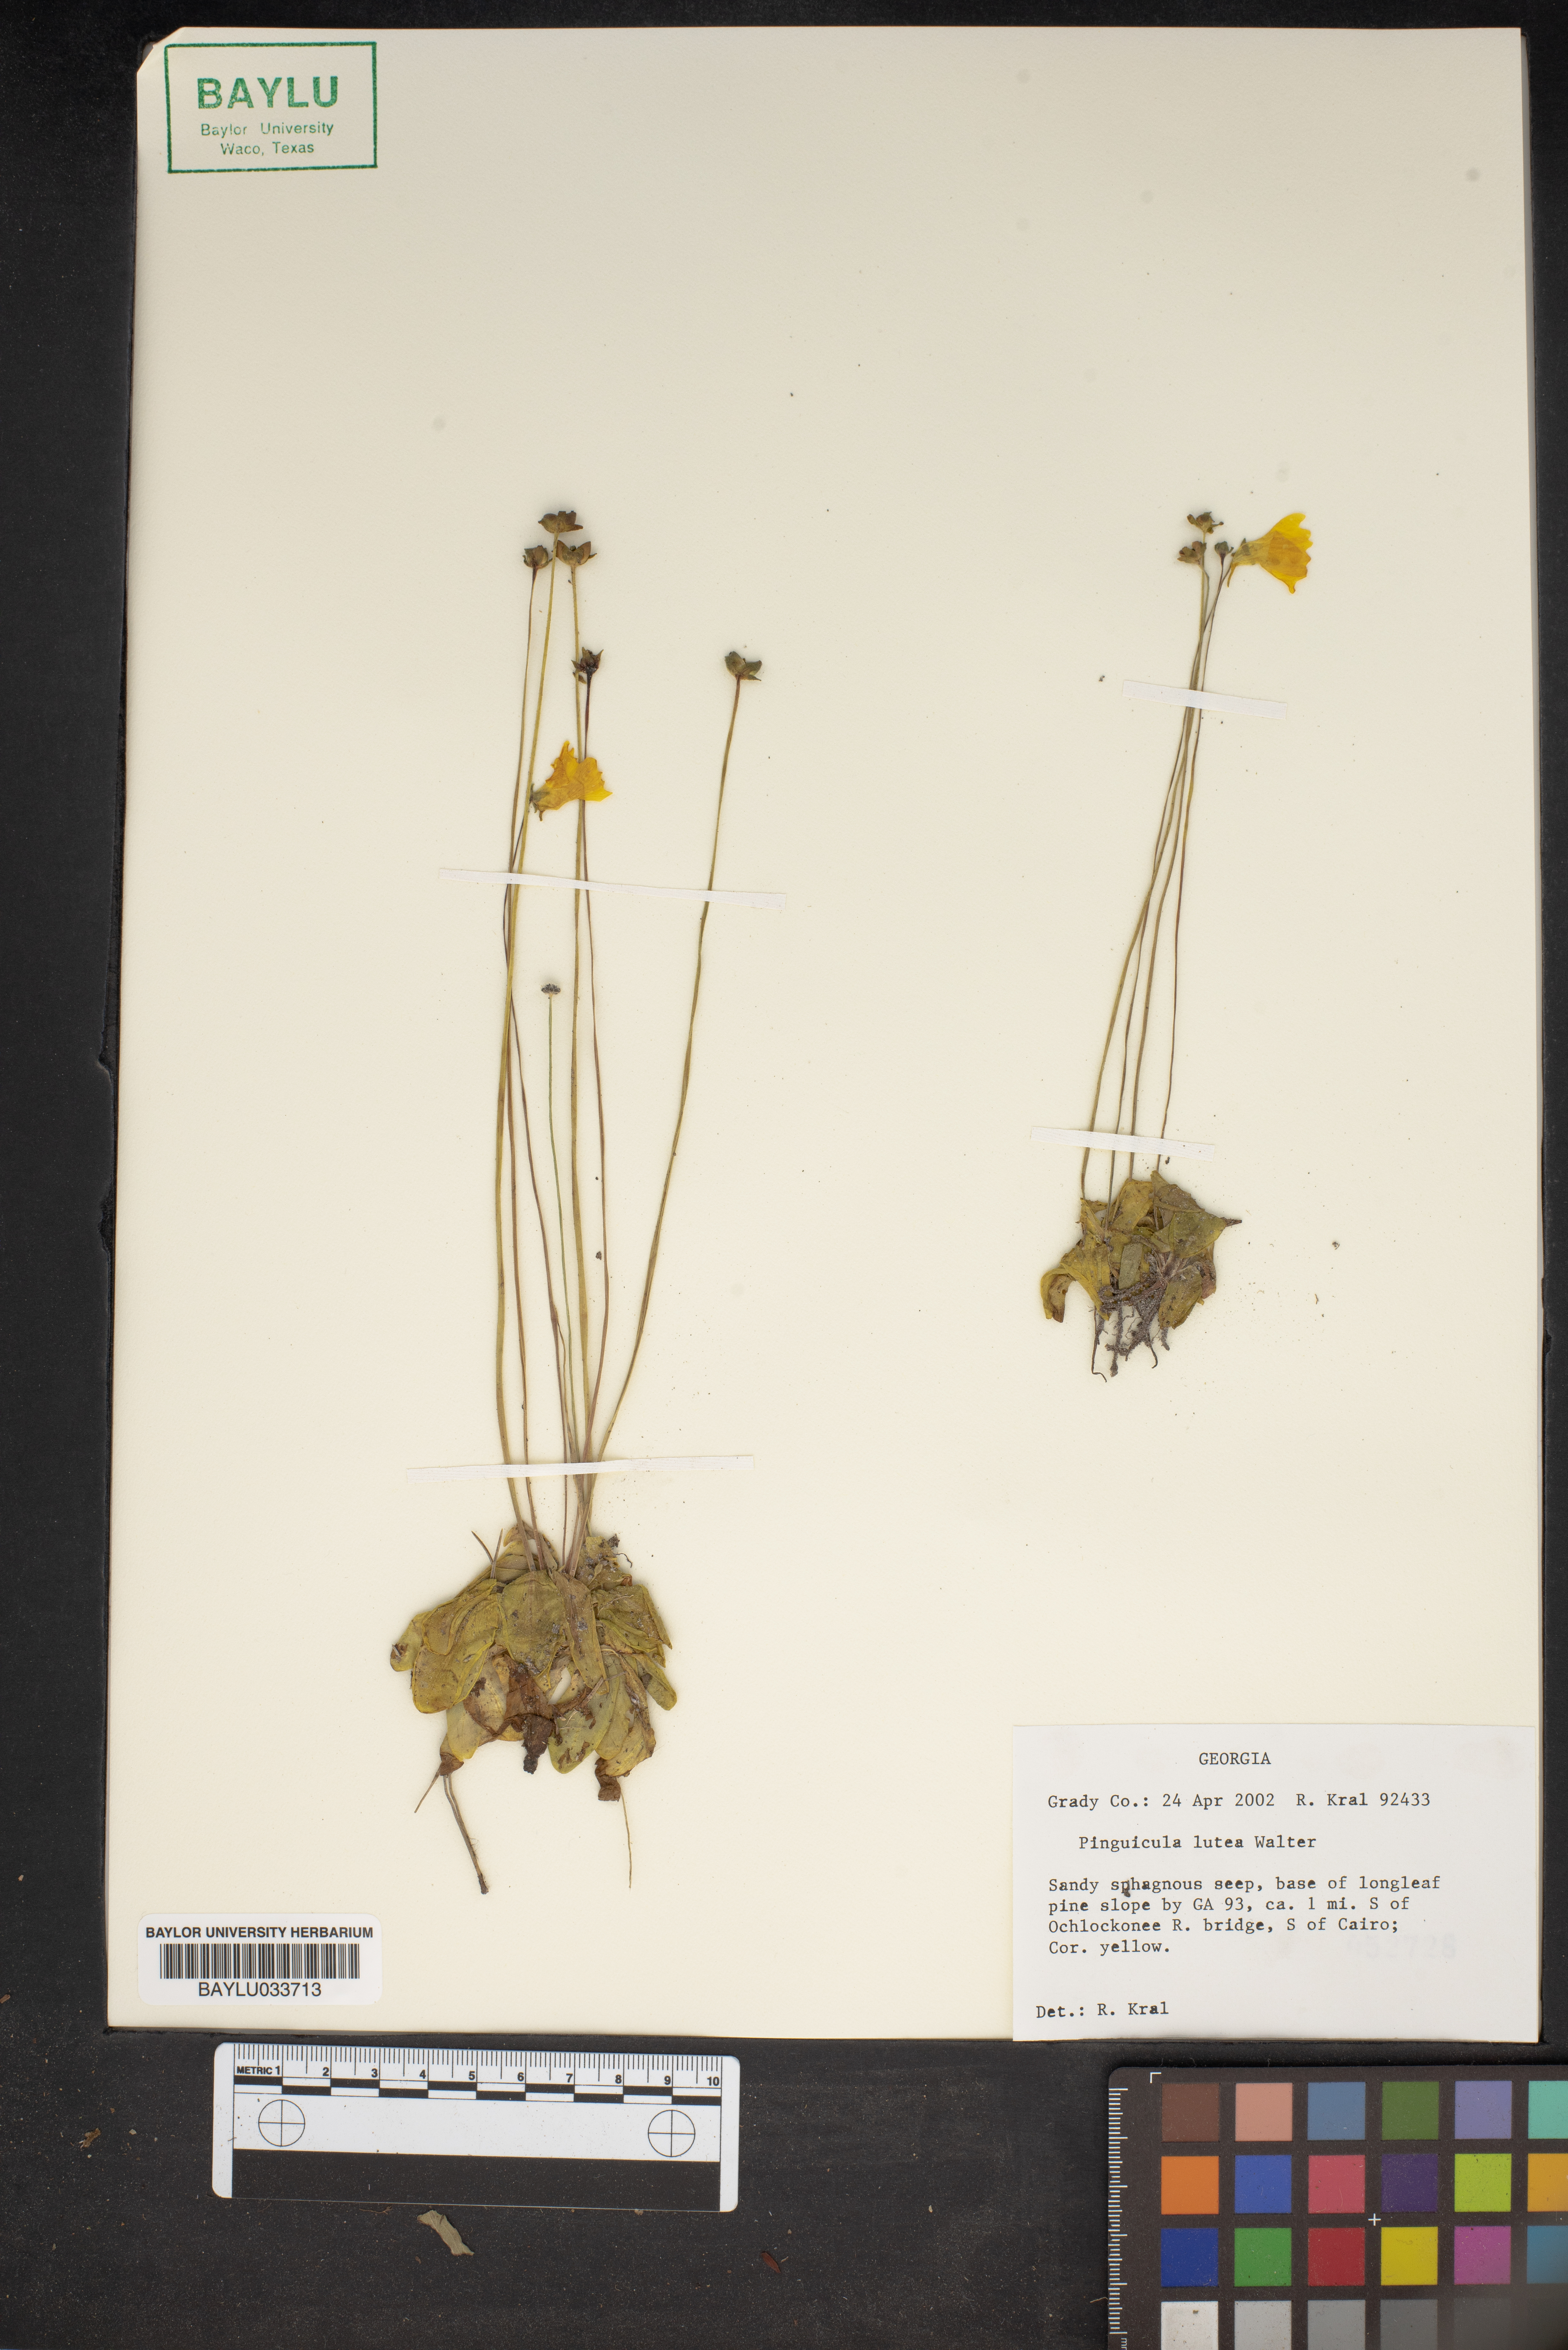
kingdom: Plantae
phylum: Tracheophyta
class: Magnoliopsida
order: Lamiales
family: Lentibulariaceae
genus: Pinguicula
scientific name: Pinguicula lutea
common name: Yellow butterwort
